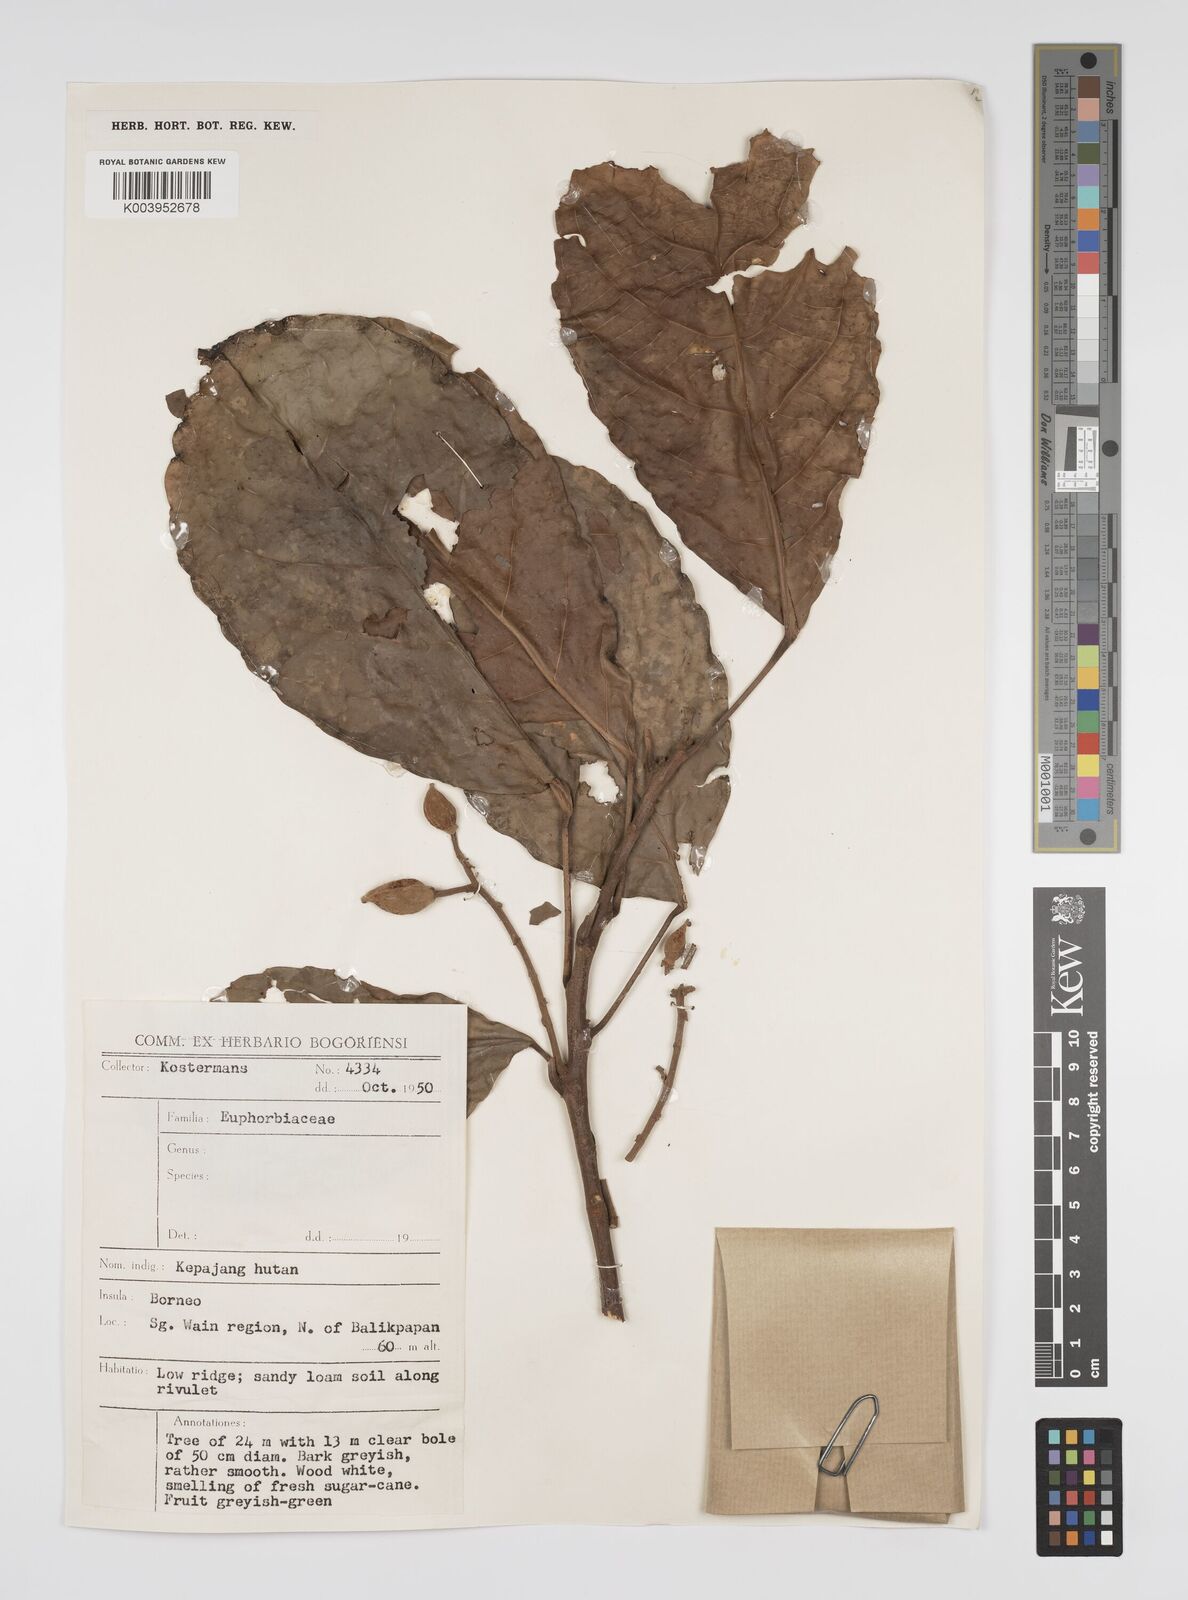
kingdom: Plantae
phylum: Tracheophyta
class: Magnoliopsida
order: Malpighiales
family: Euphorbiaceae
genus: Cheilosa
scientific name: Cheilosa montana
